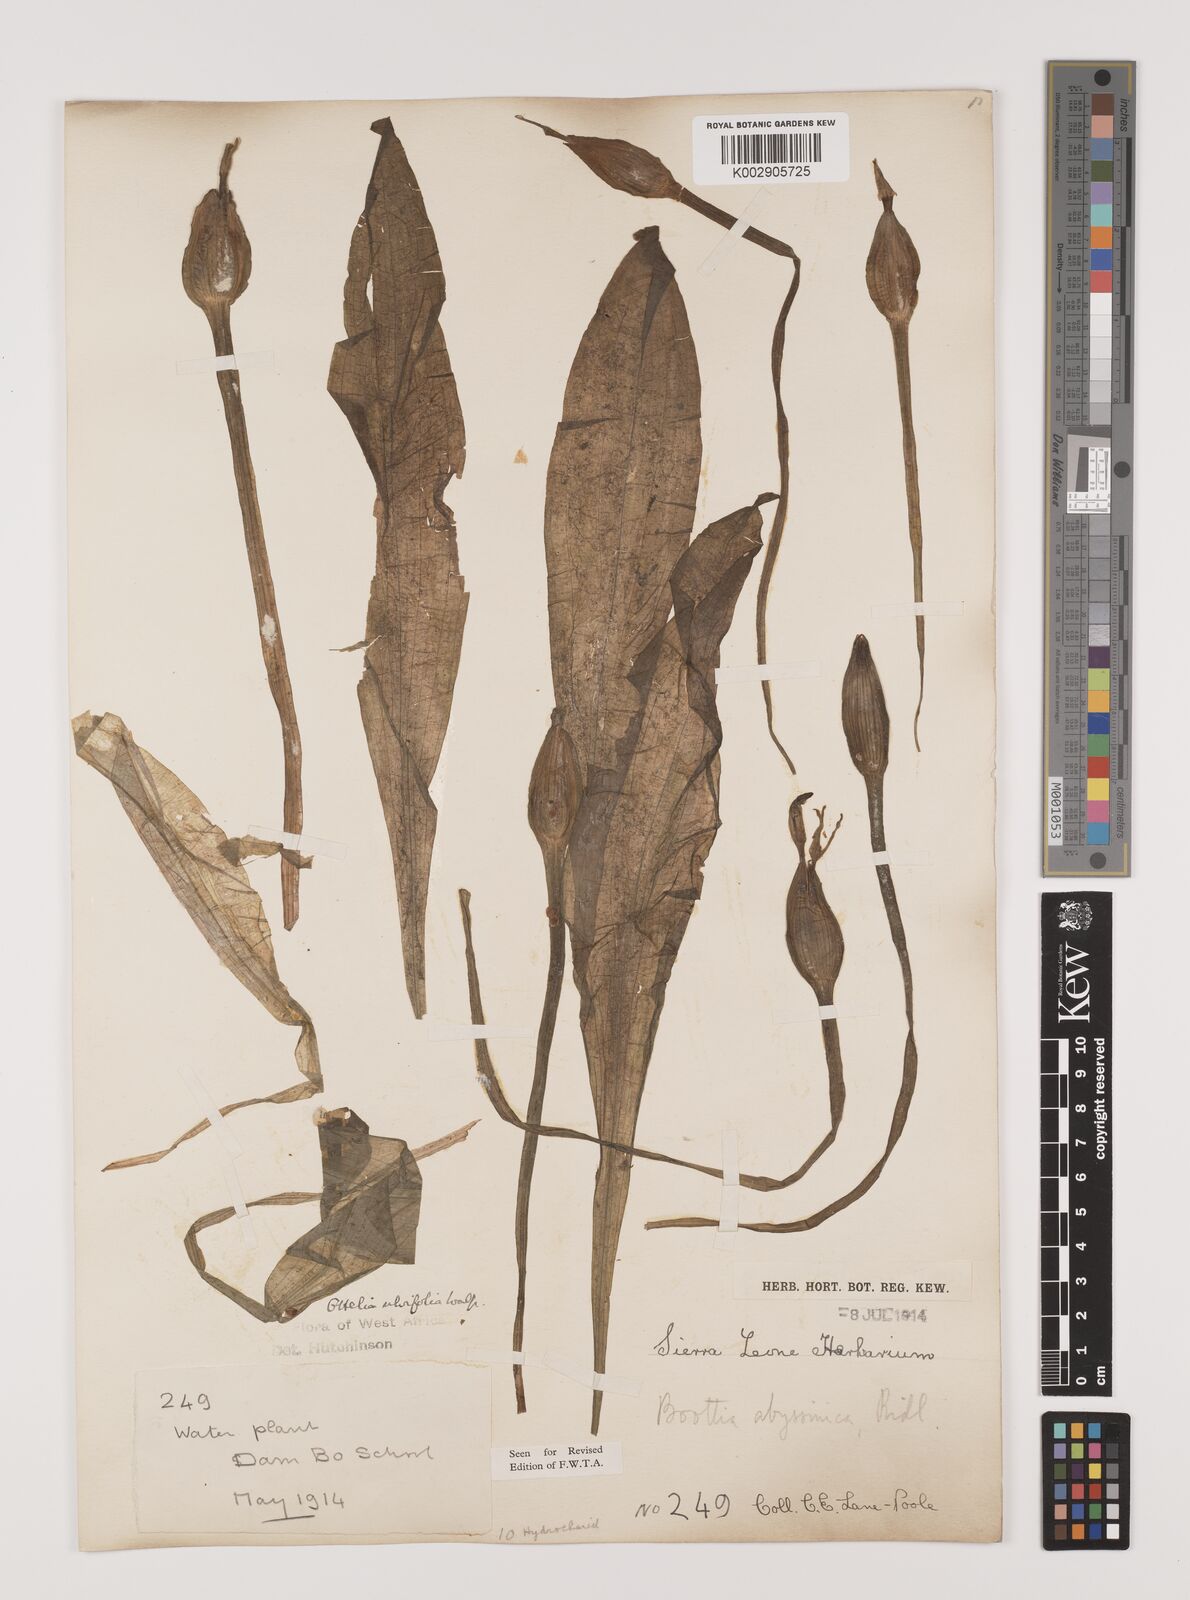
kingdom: Plantae
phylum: Tracheophyta
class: Liliopsida
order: Alismatales
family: Hydrocharitaceae
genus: Ottelia
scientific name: Ottelia ulvifolia
